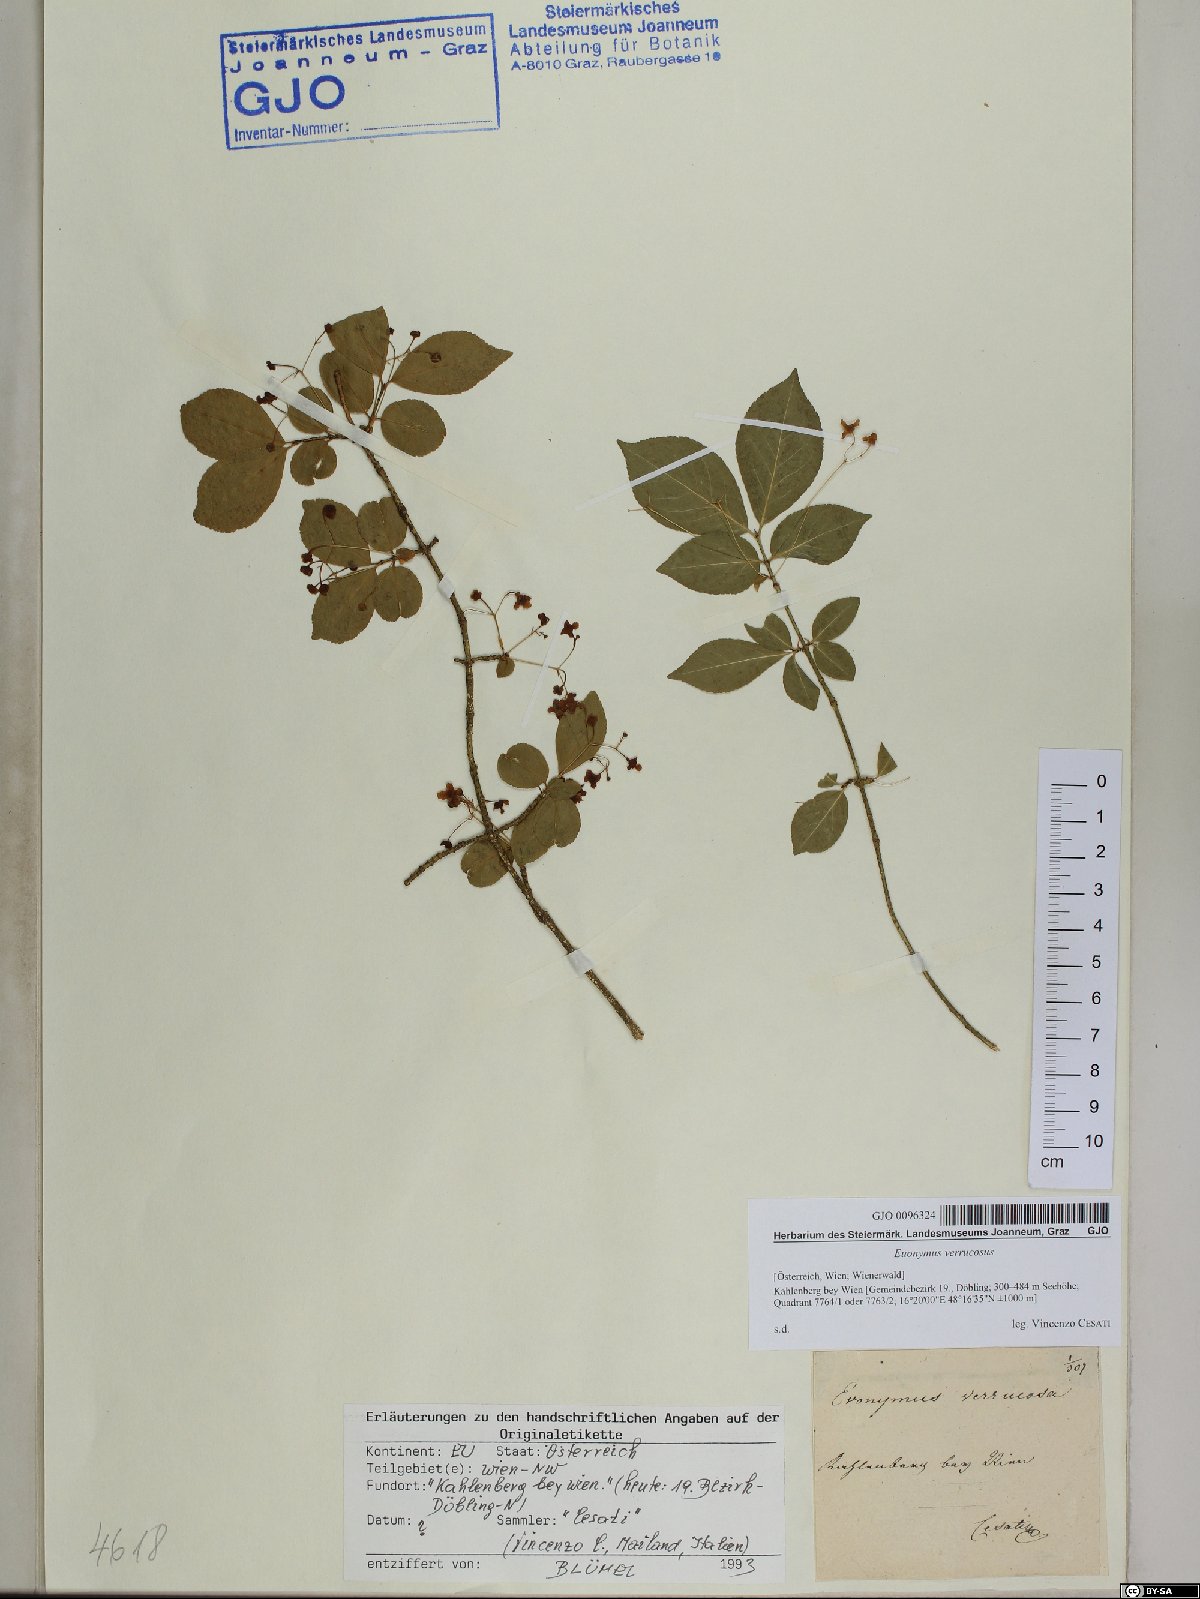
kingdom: Plantae
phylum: Tracheophyta
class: Magnoliopsida
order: Celastrales
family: Celastraceae
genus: Euonymus
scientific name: Euonymus verrucosus
